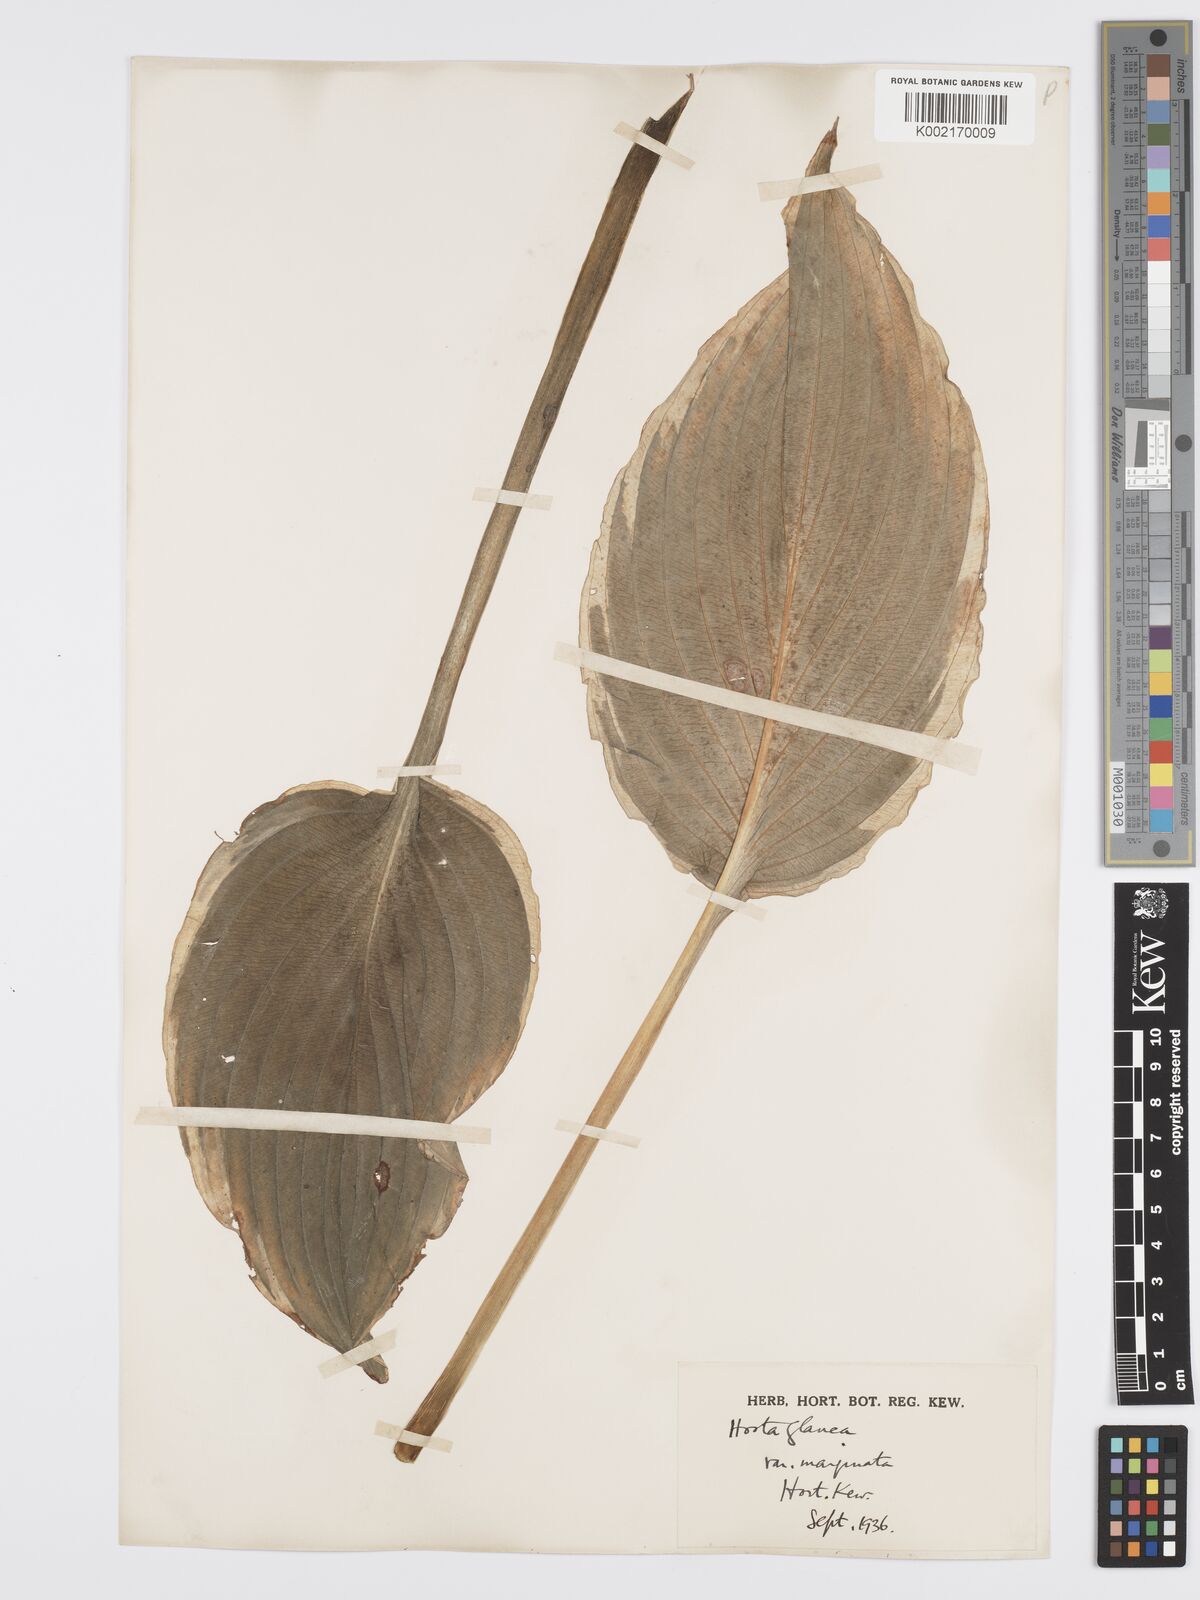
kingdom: Plantae
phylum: Tracheophyta
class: Liliopsida
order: Asparagales
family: Asparagaceae
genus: Hosta
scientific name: Hosta sieboldiana
